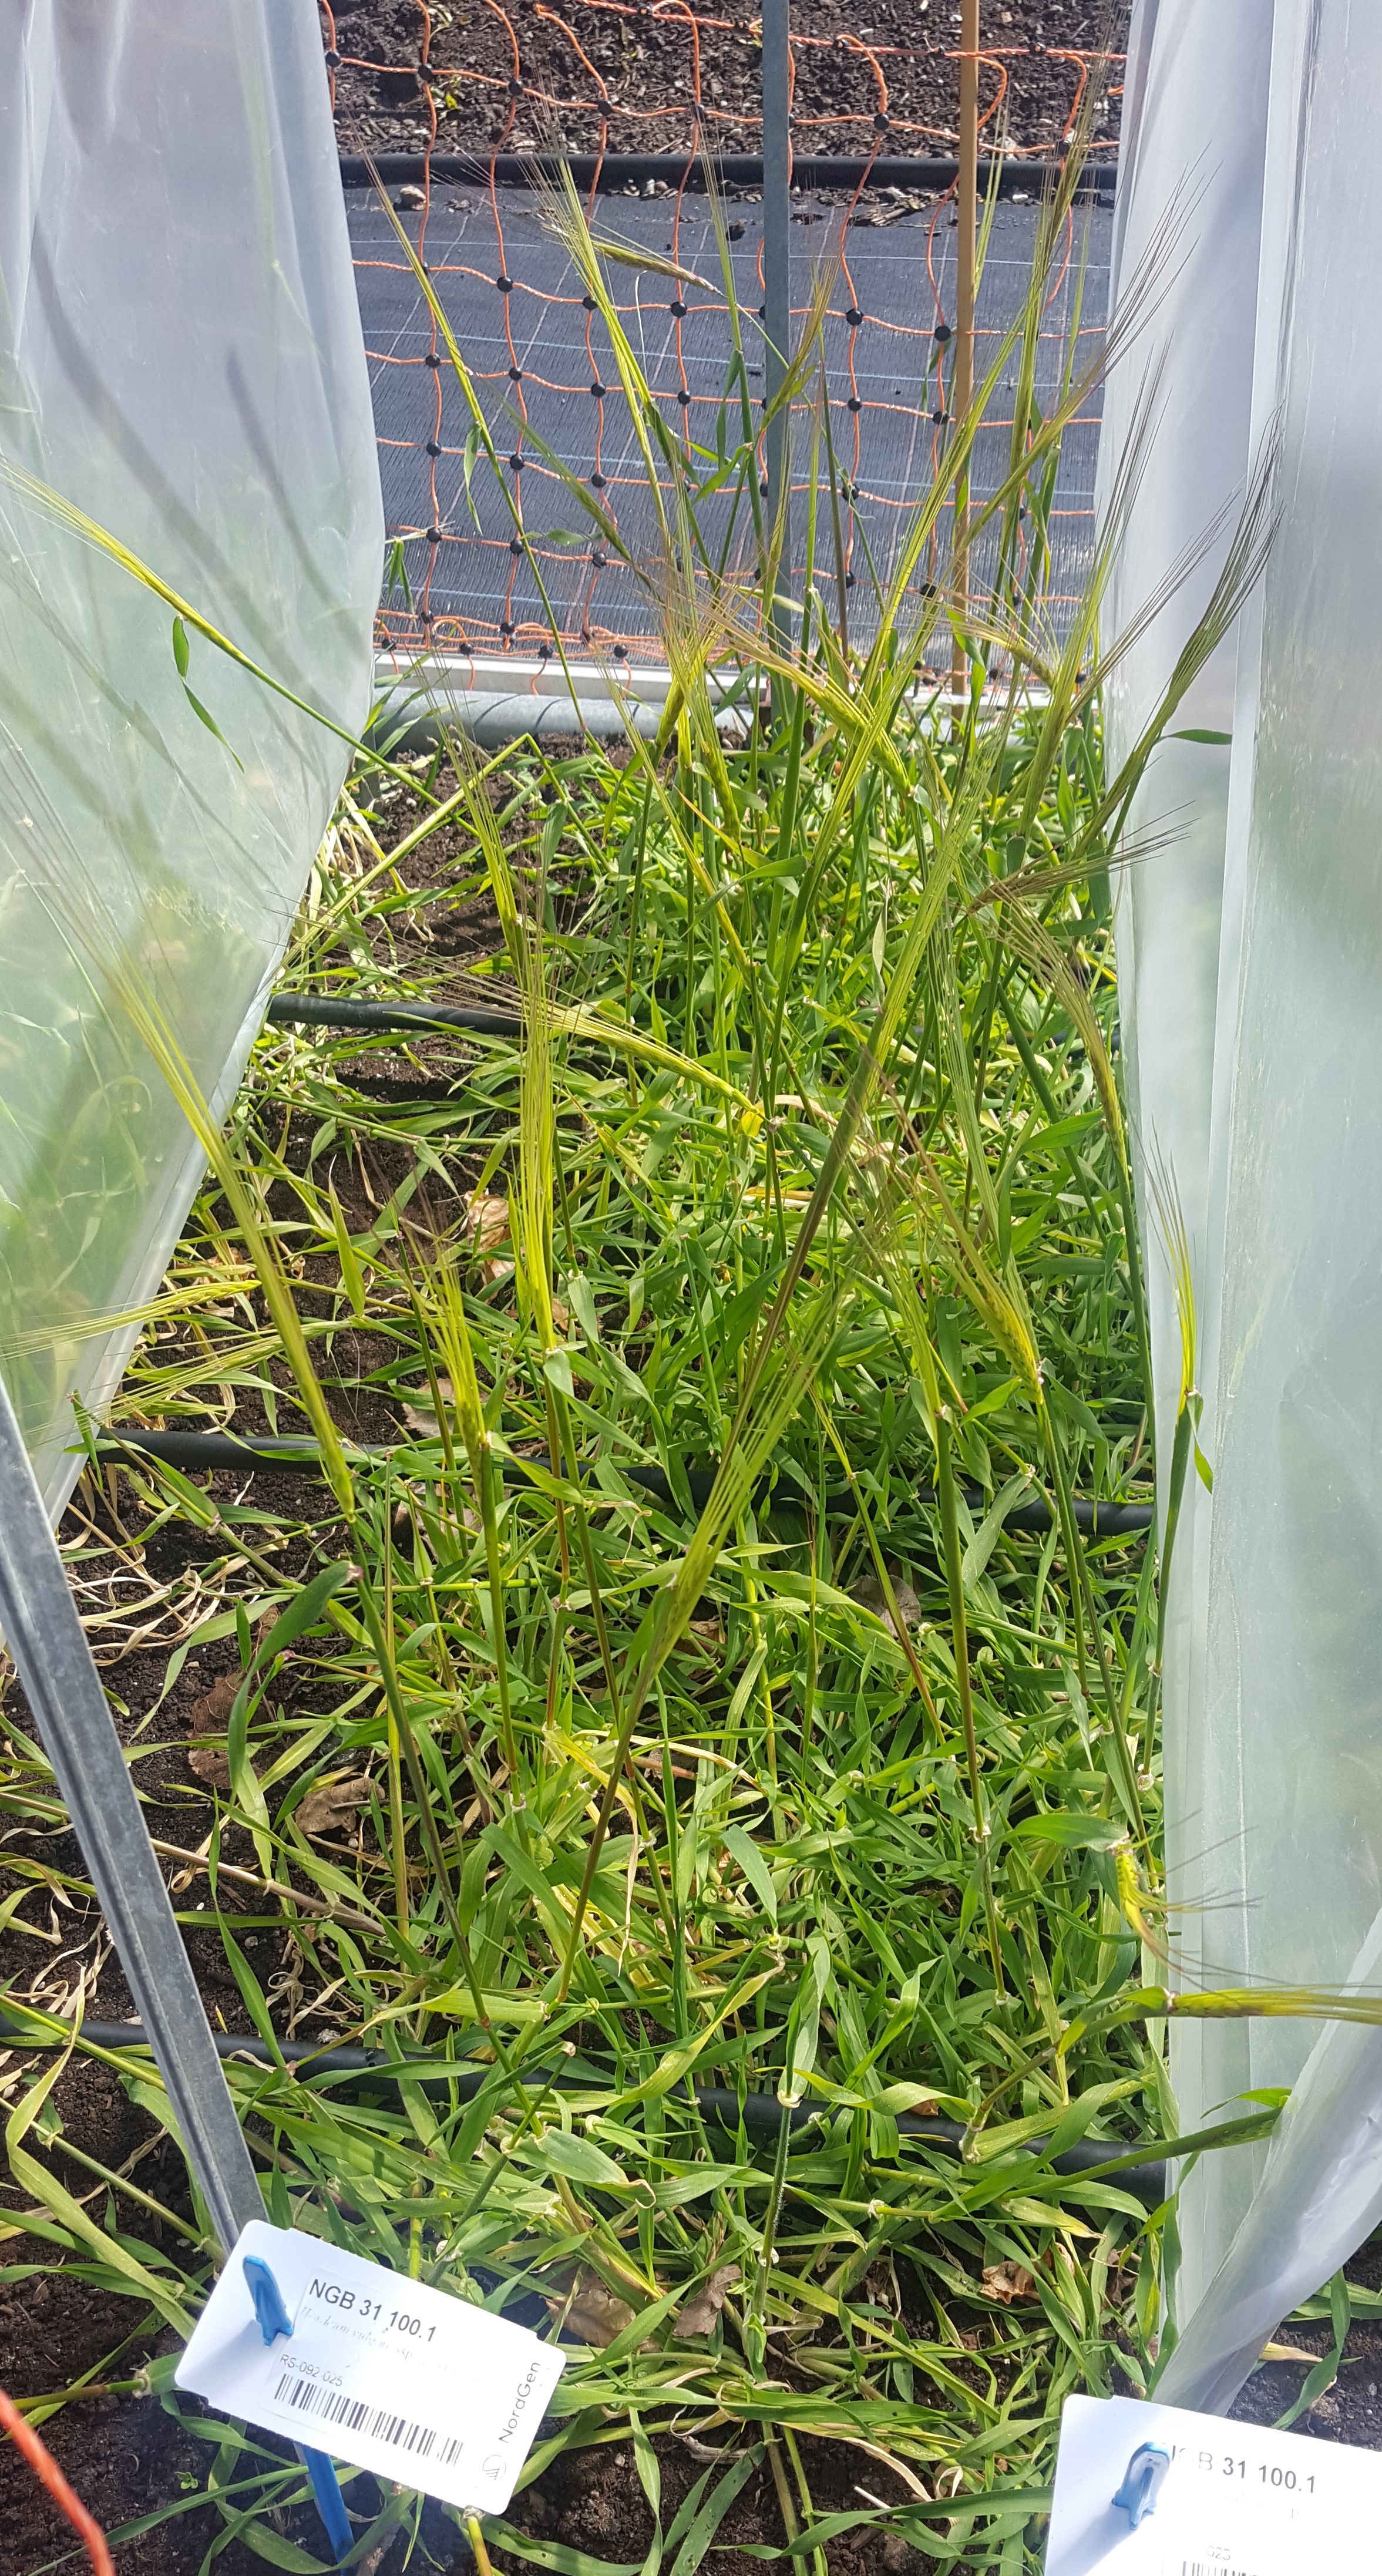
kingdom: Plantae
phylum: Tracheophyta
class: Liliopsida
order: Poales
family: Poaceae
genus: Hordeum
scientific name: Hordeum spontaneum
